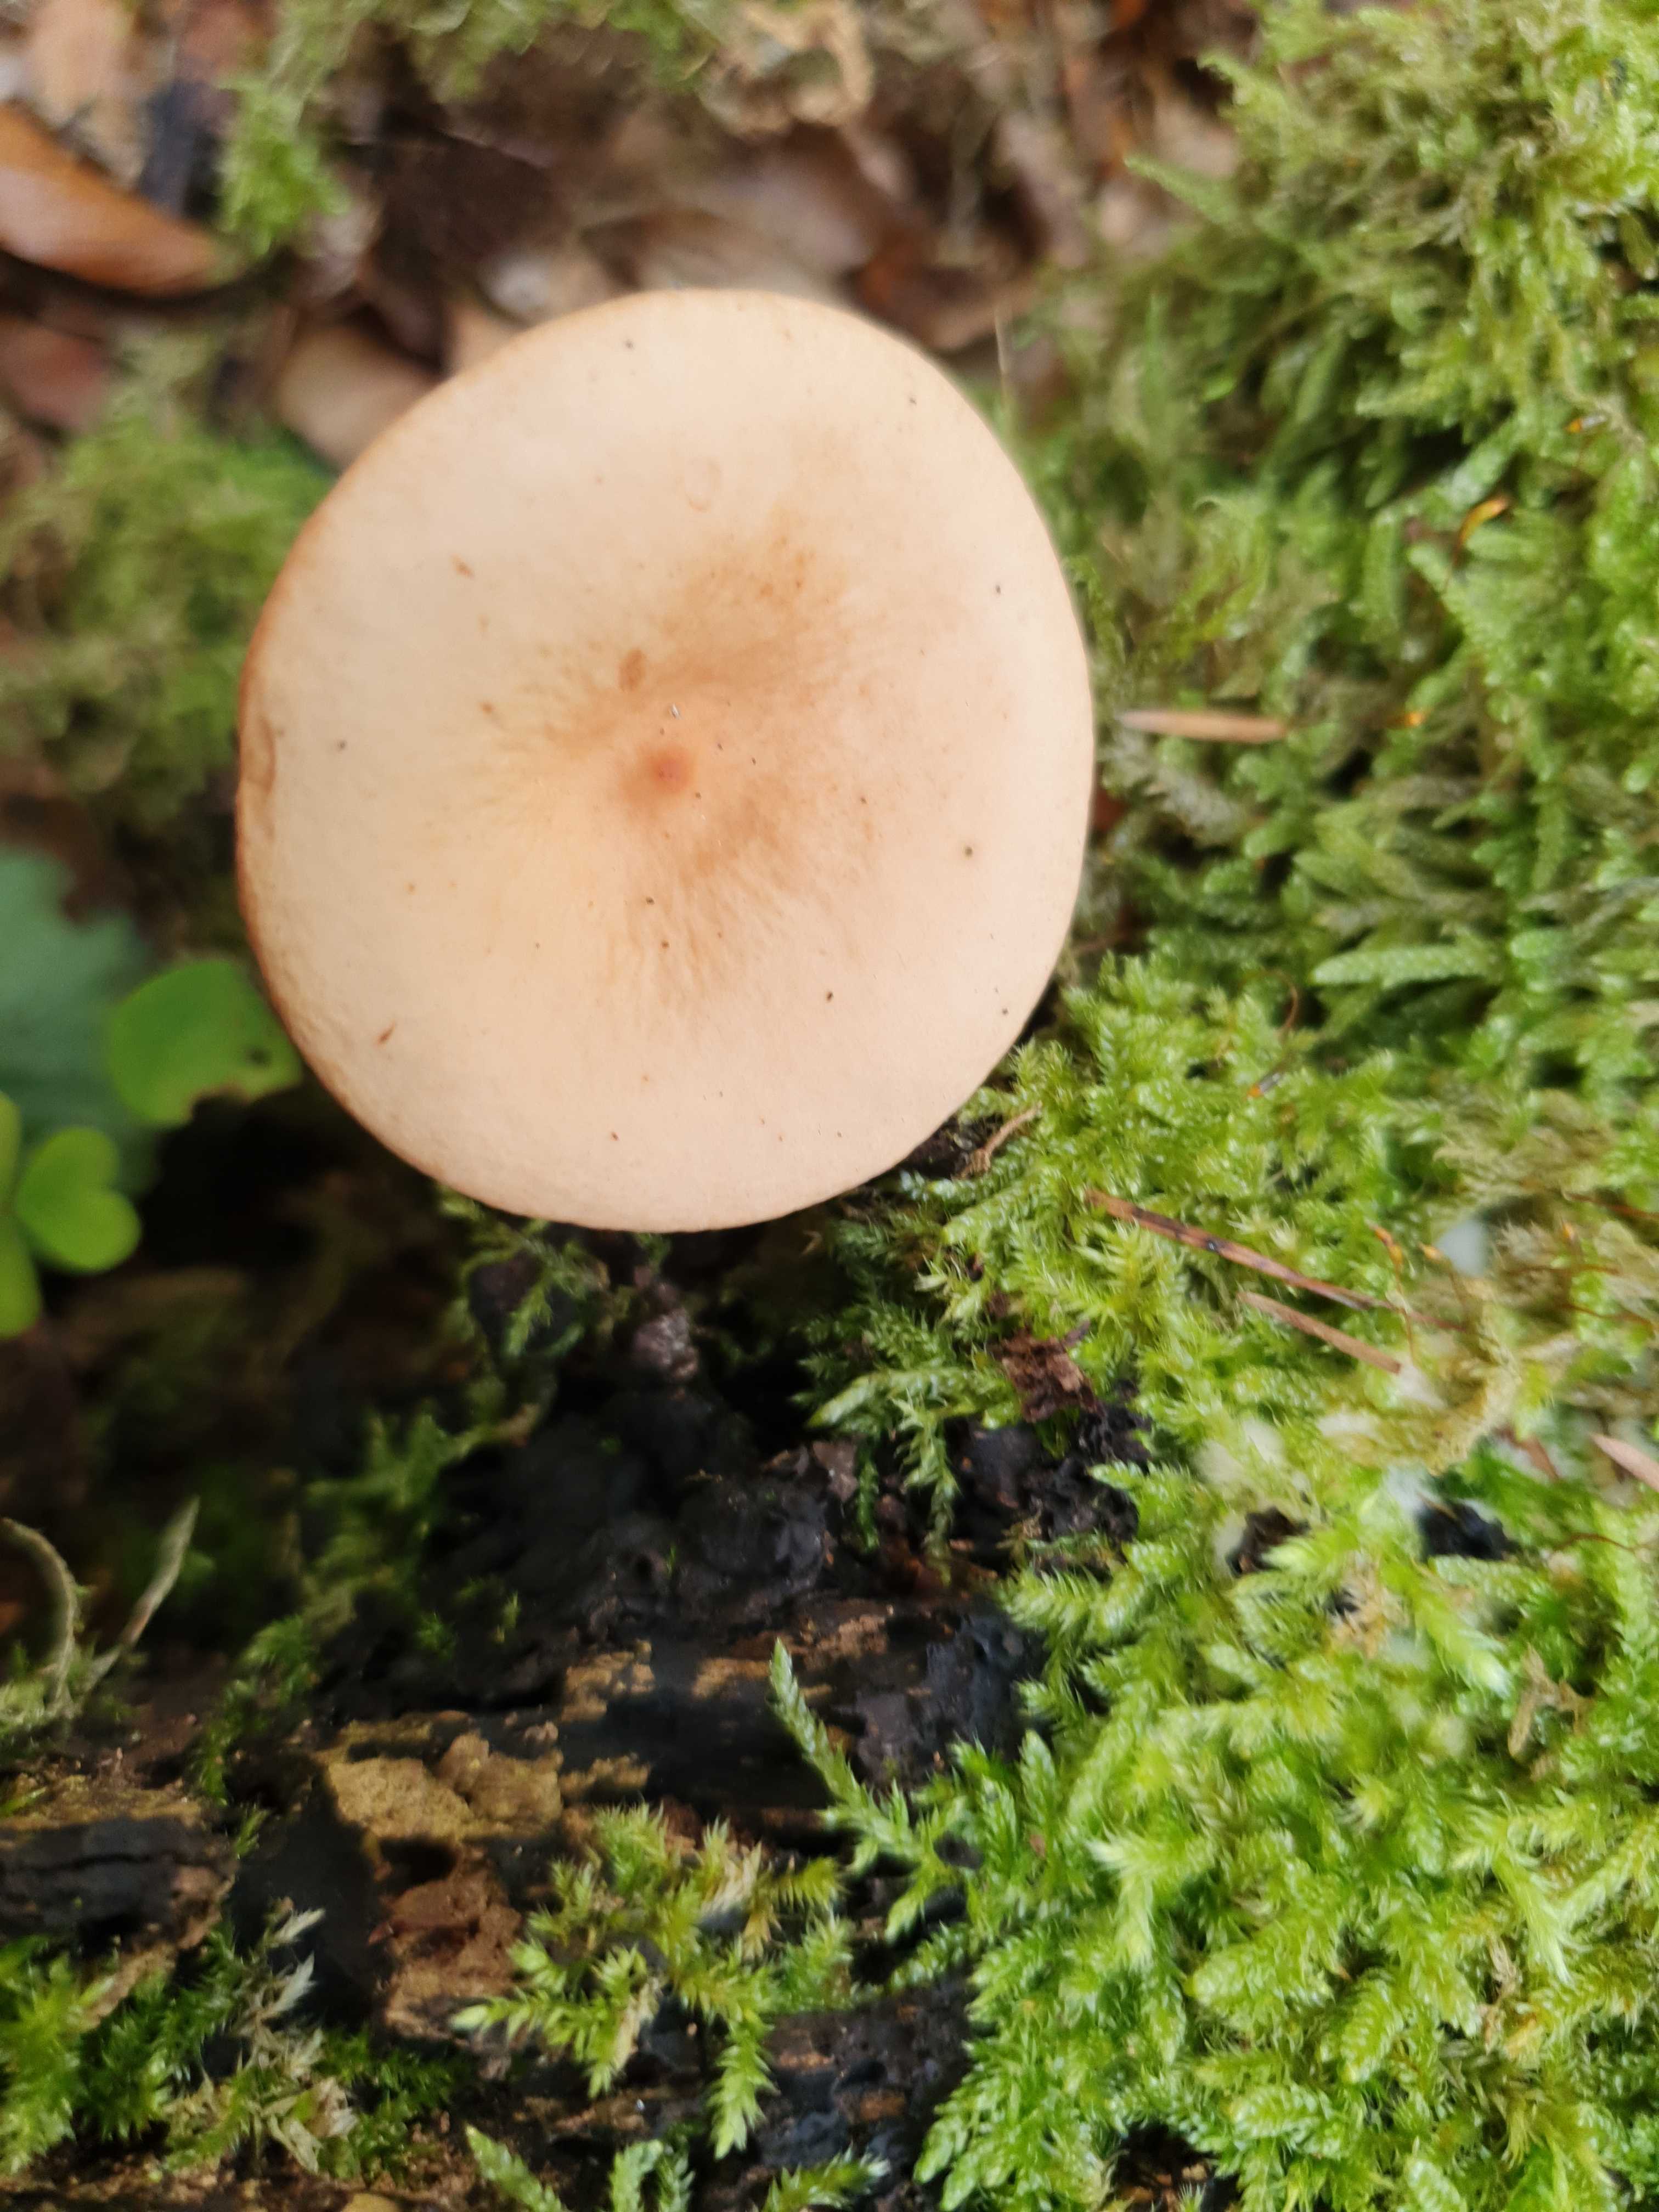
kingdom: Fungi
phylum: Basidiomycota
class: Agaricomycetes
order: Russulales
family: Russulaceae
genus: Lactarius
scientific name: Lactarius tabidus
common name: rynket mælkehat
